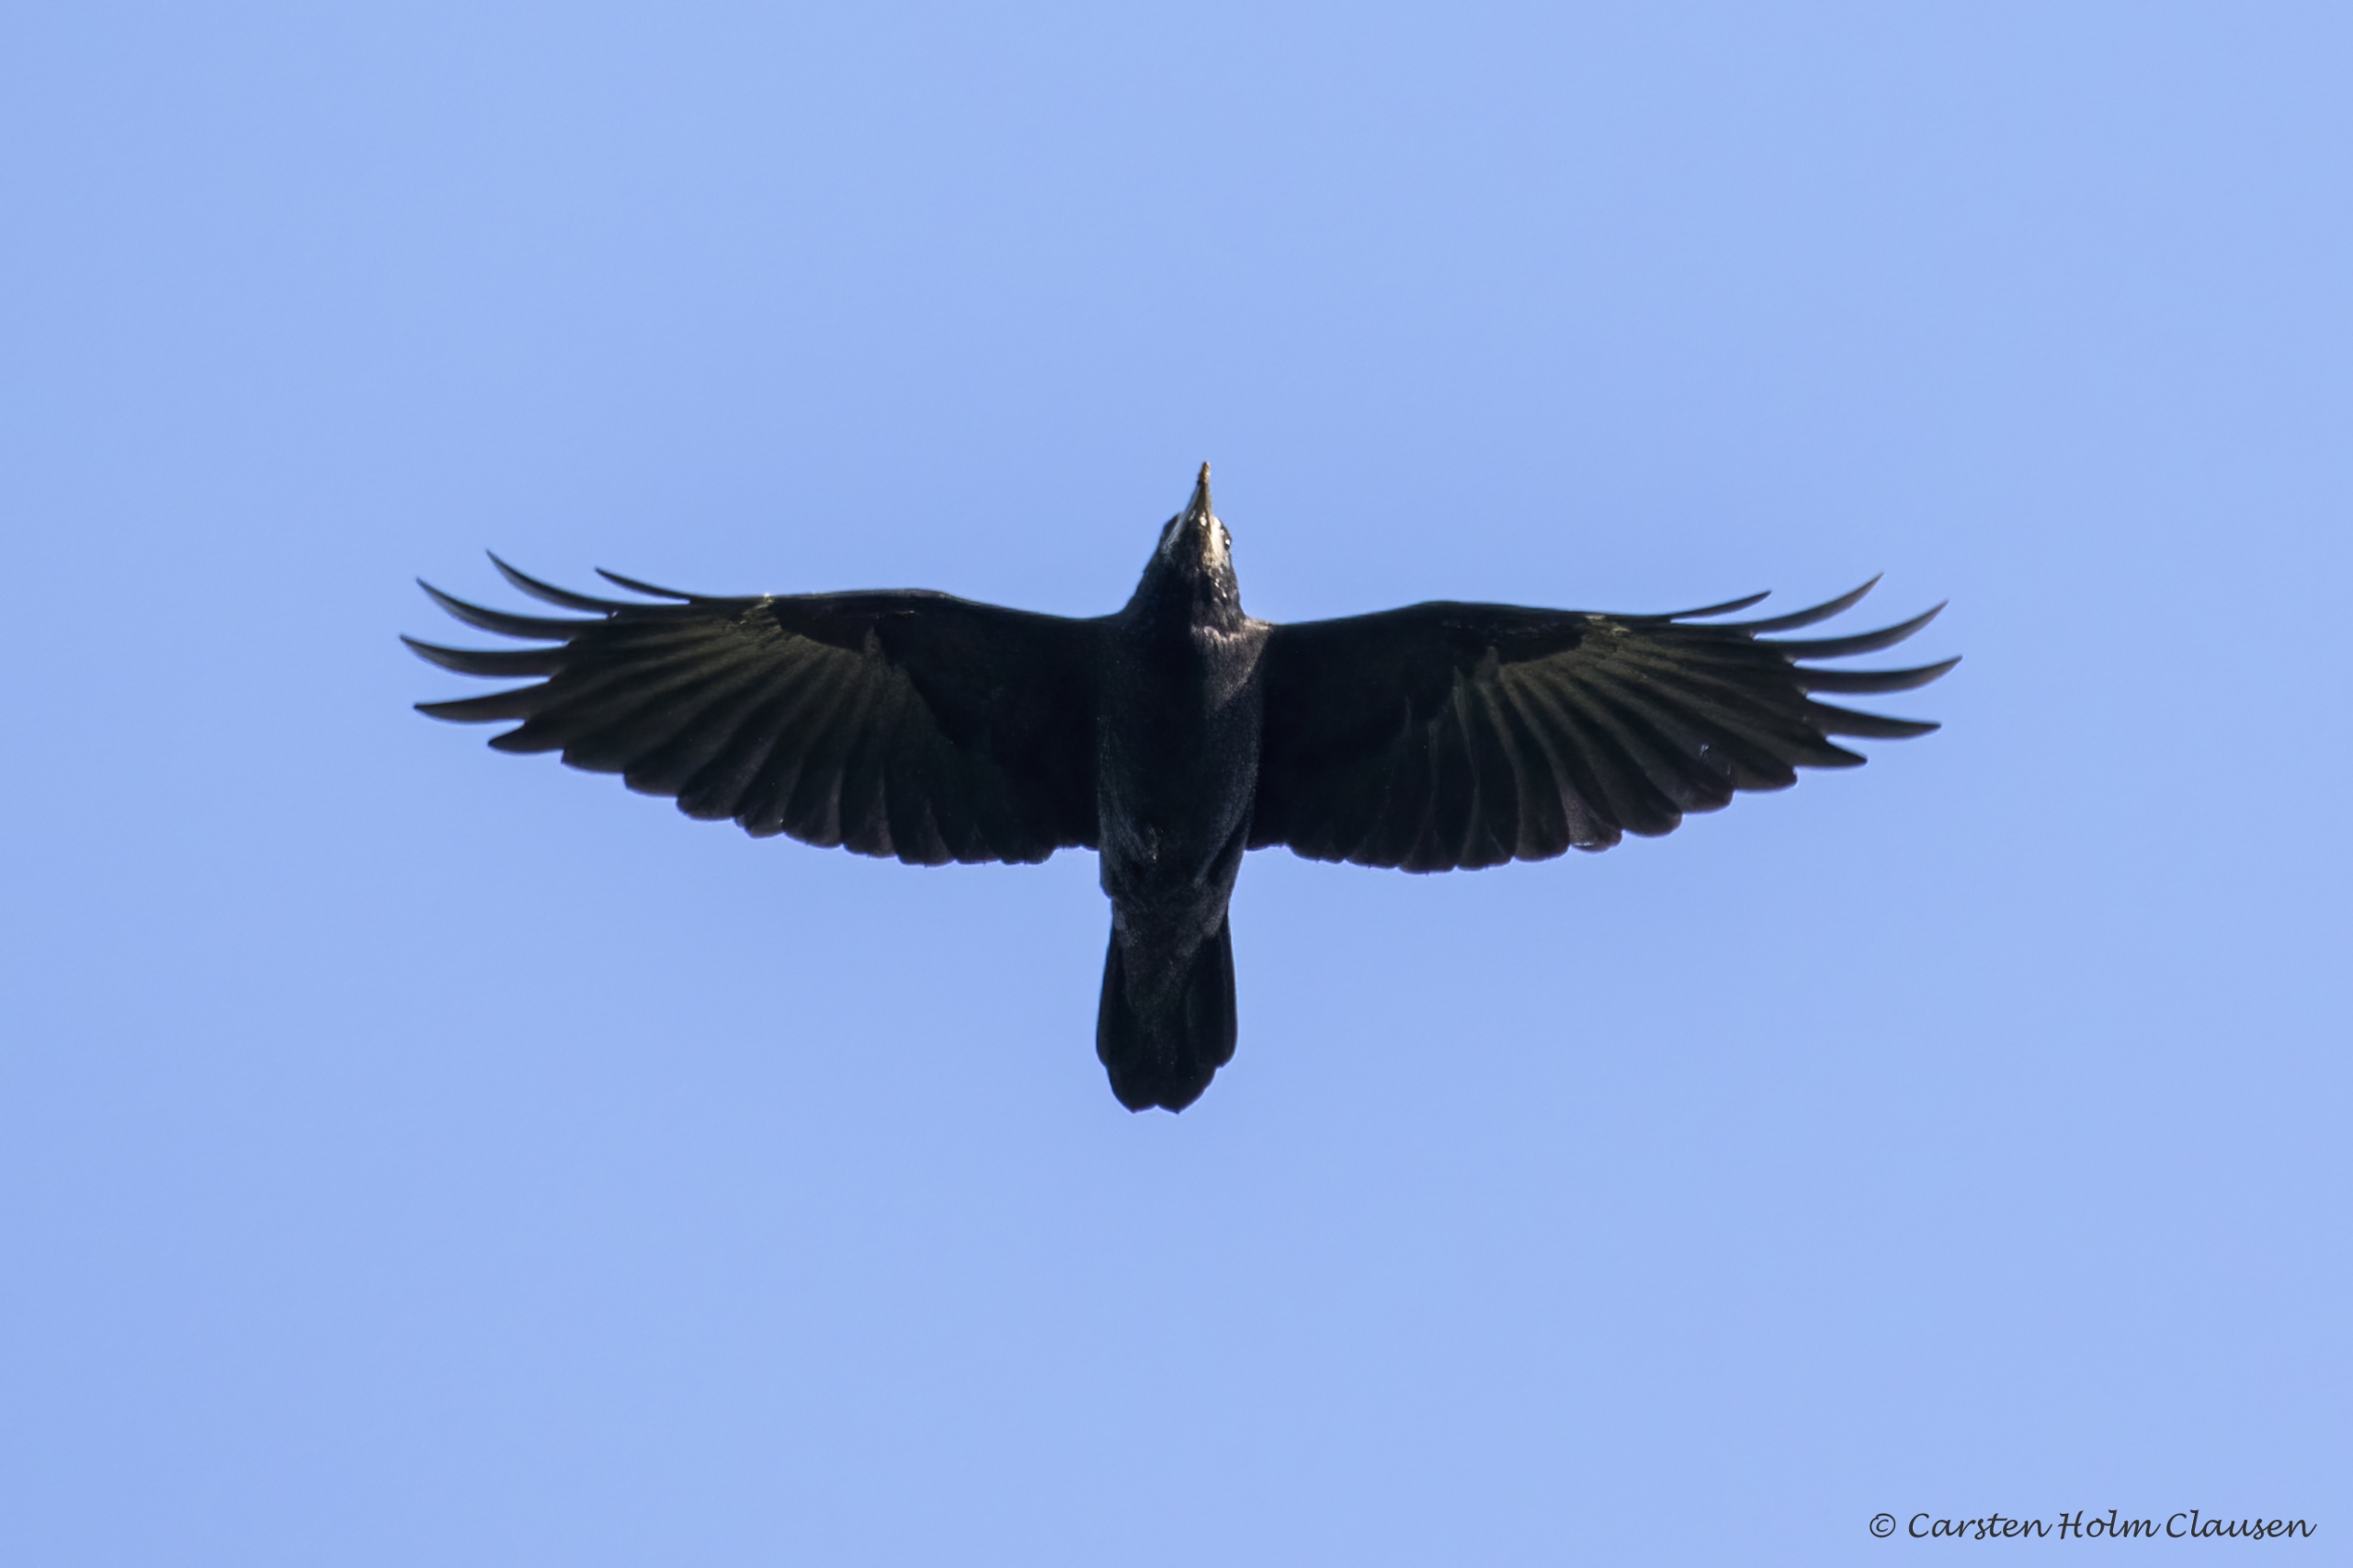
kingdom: Animalia
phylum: Chordata
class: Aves
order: Passeriformes
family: Corvidae
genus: Corvus
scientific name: Corvus frugilegus
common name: Råge
